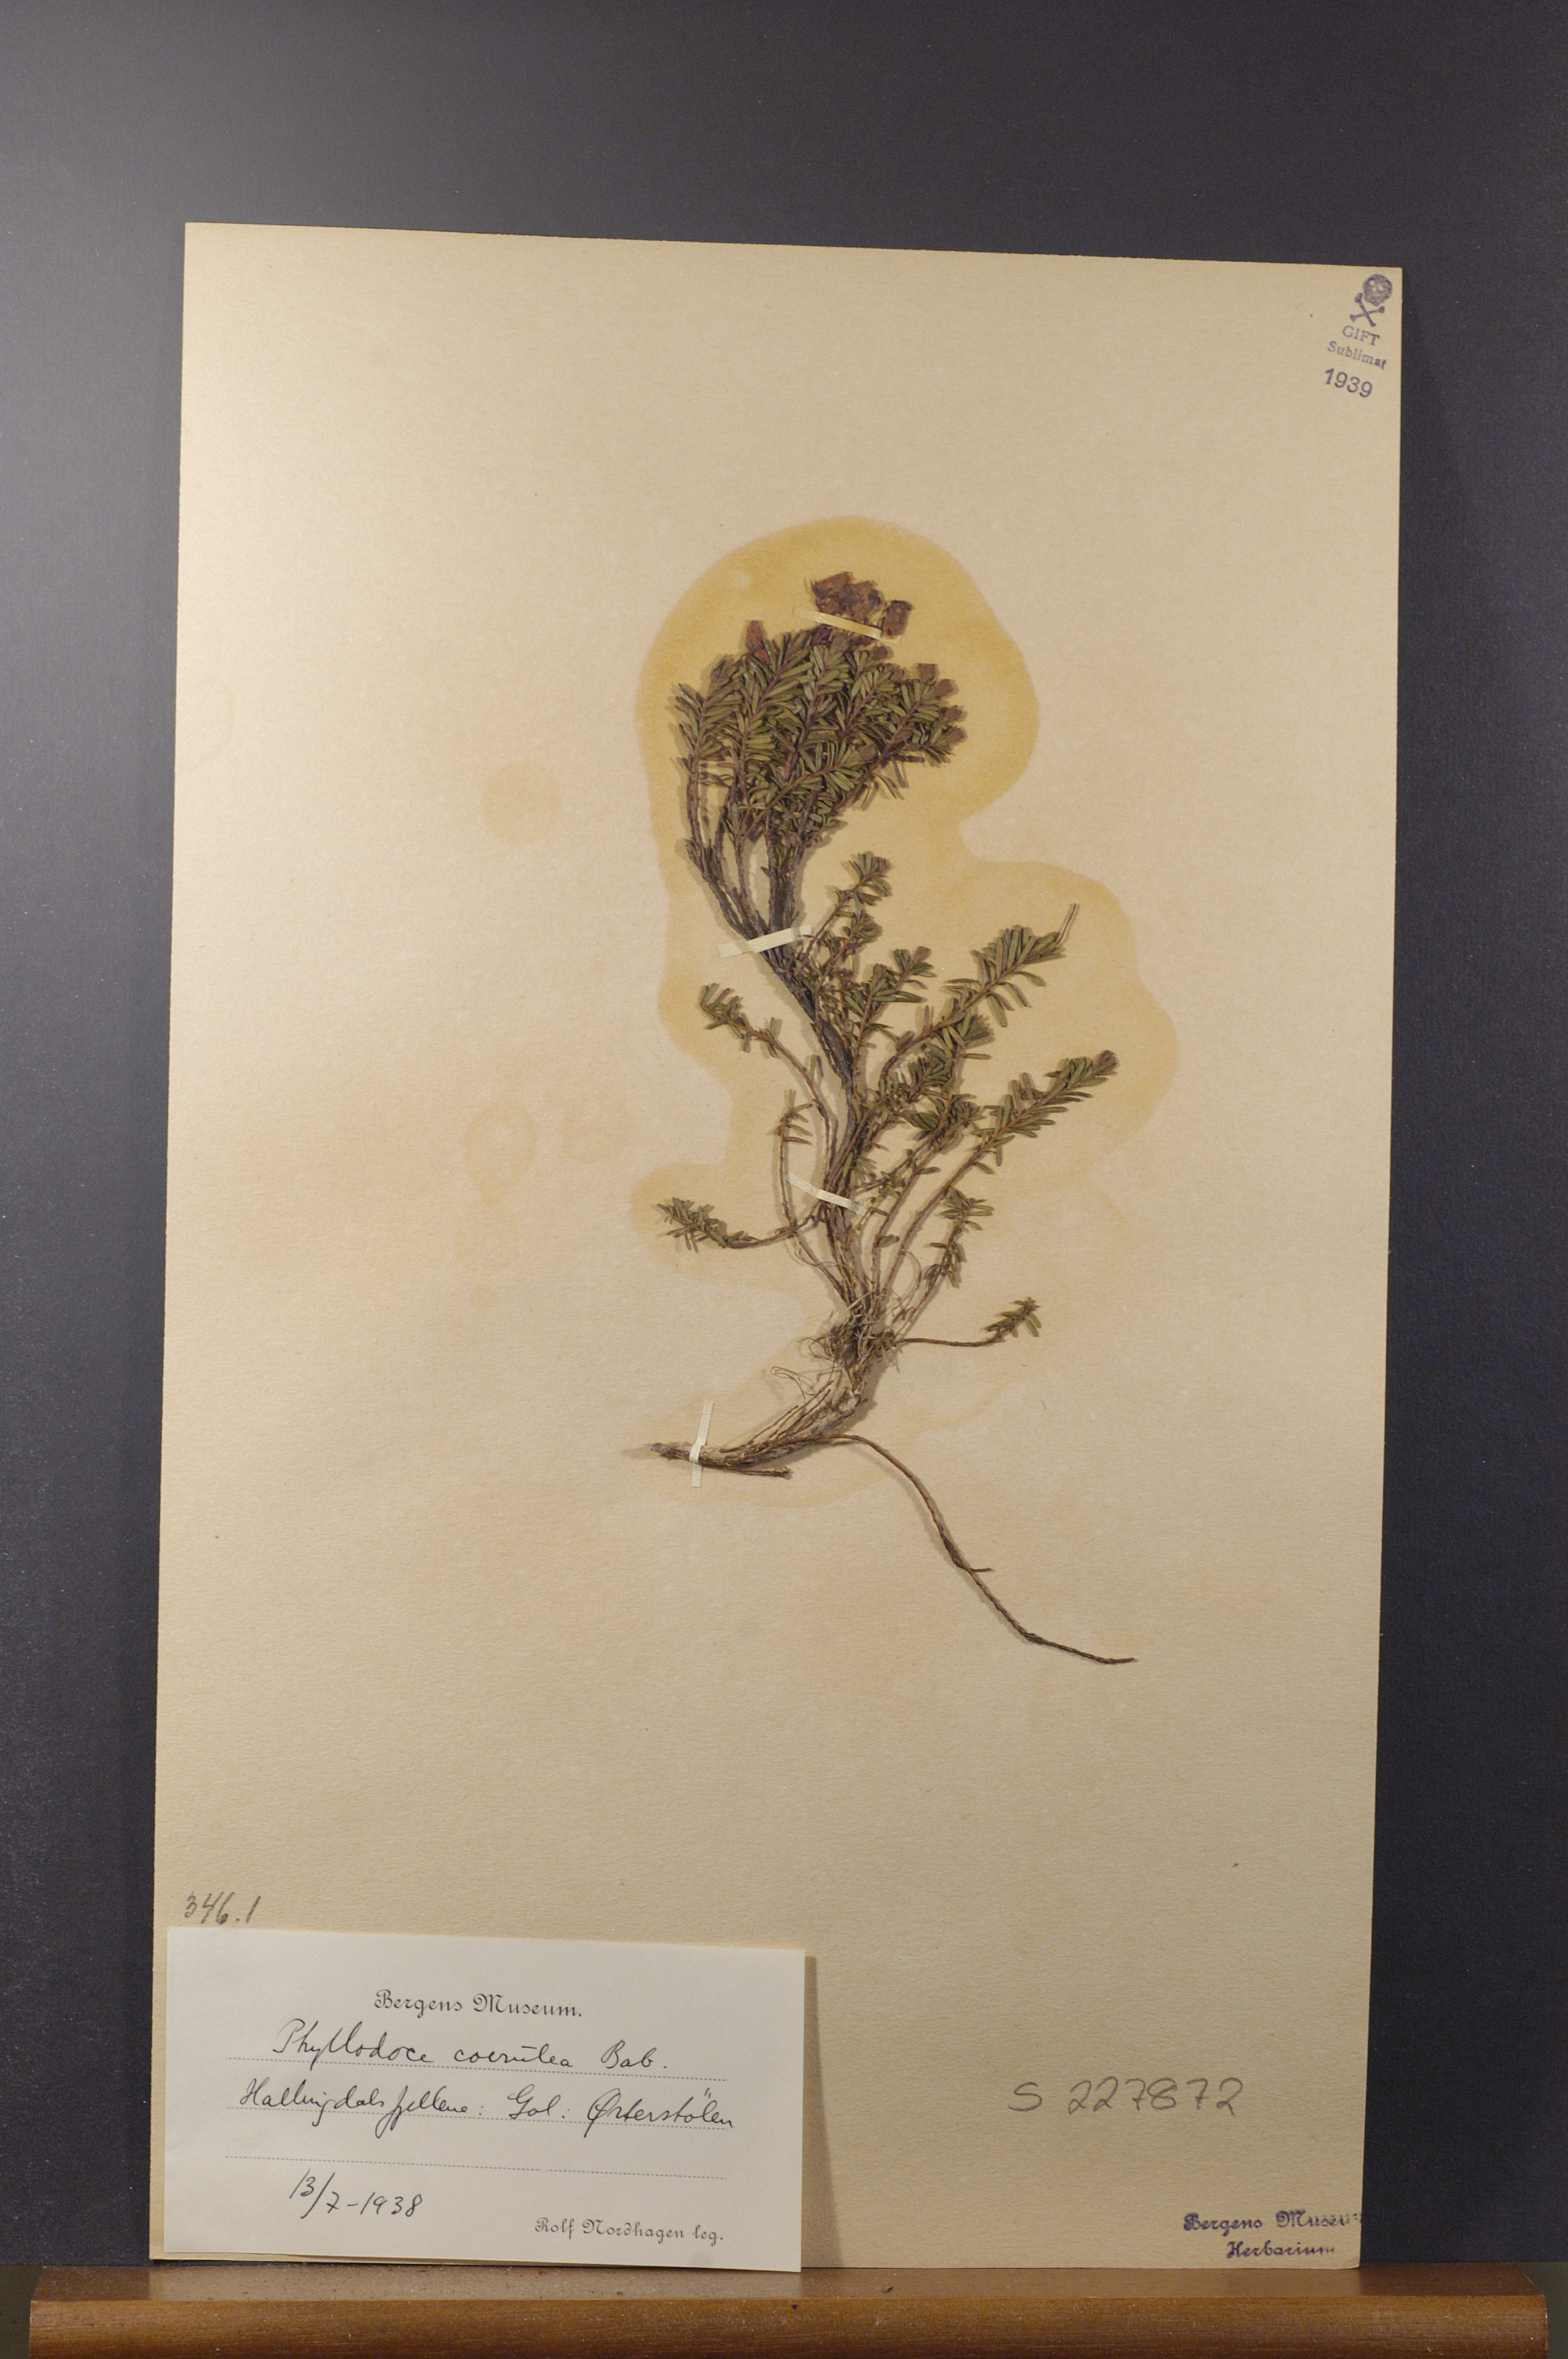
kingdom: Plantae
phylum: Tracheophyta
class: Magnoliopsida
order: Ericales
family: Ericaceae
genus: Phyllodoce
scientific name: Phyllodoce caerulea
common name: Blue heath
